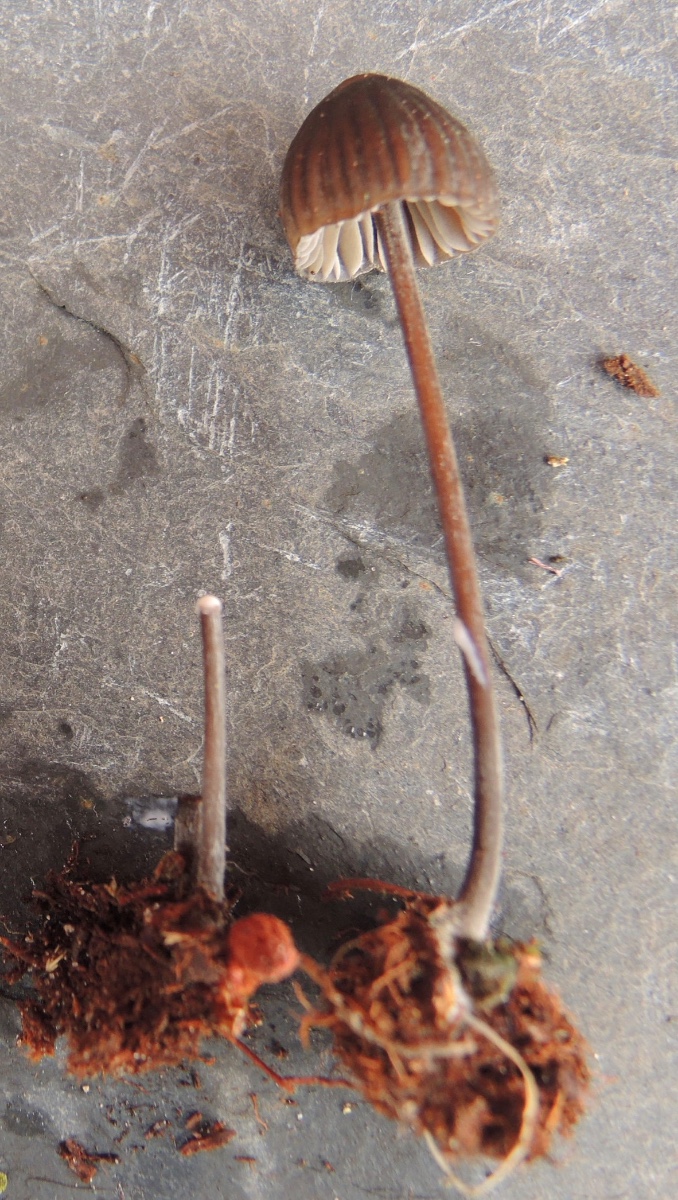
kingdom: Fungi
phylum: Basidiomycota
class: Agaricomycetes
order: Agaricales
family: Mycenaceae
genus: Mycena
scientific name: Mycena galopus
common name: hvidmælket huesvamp
